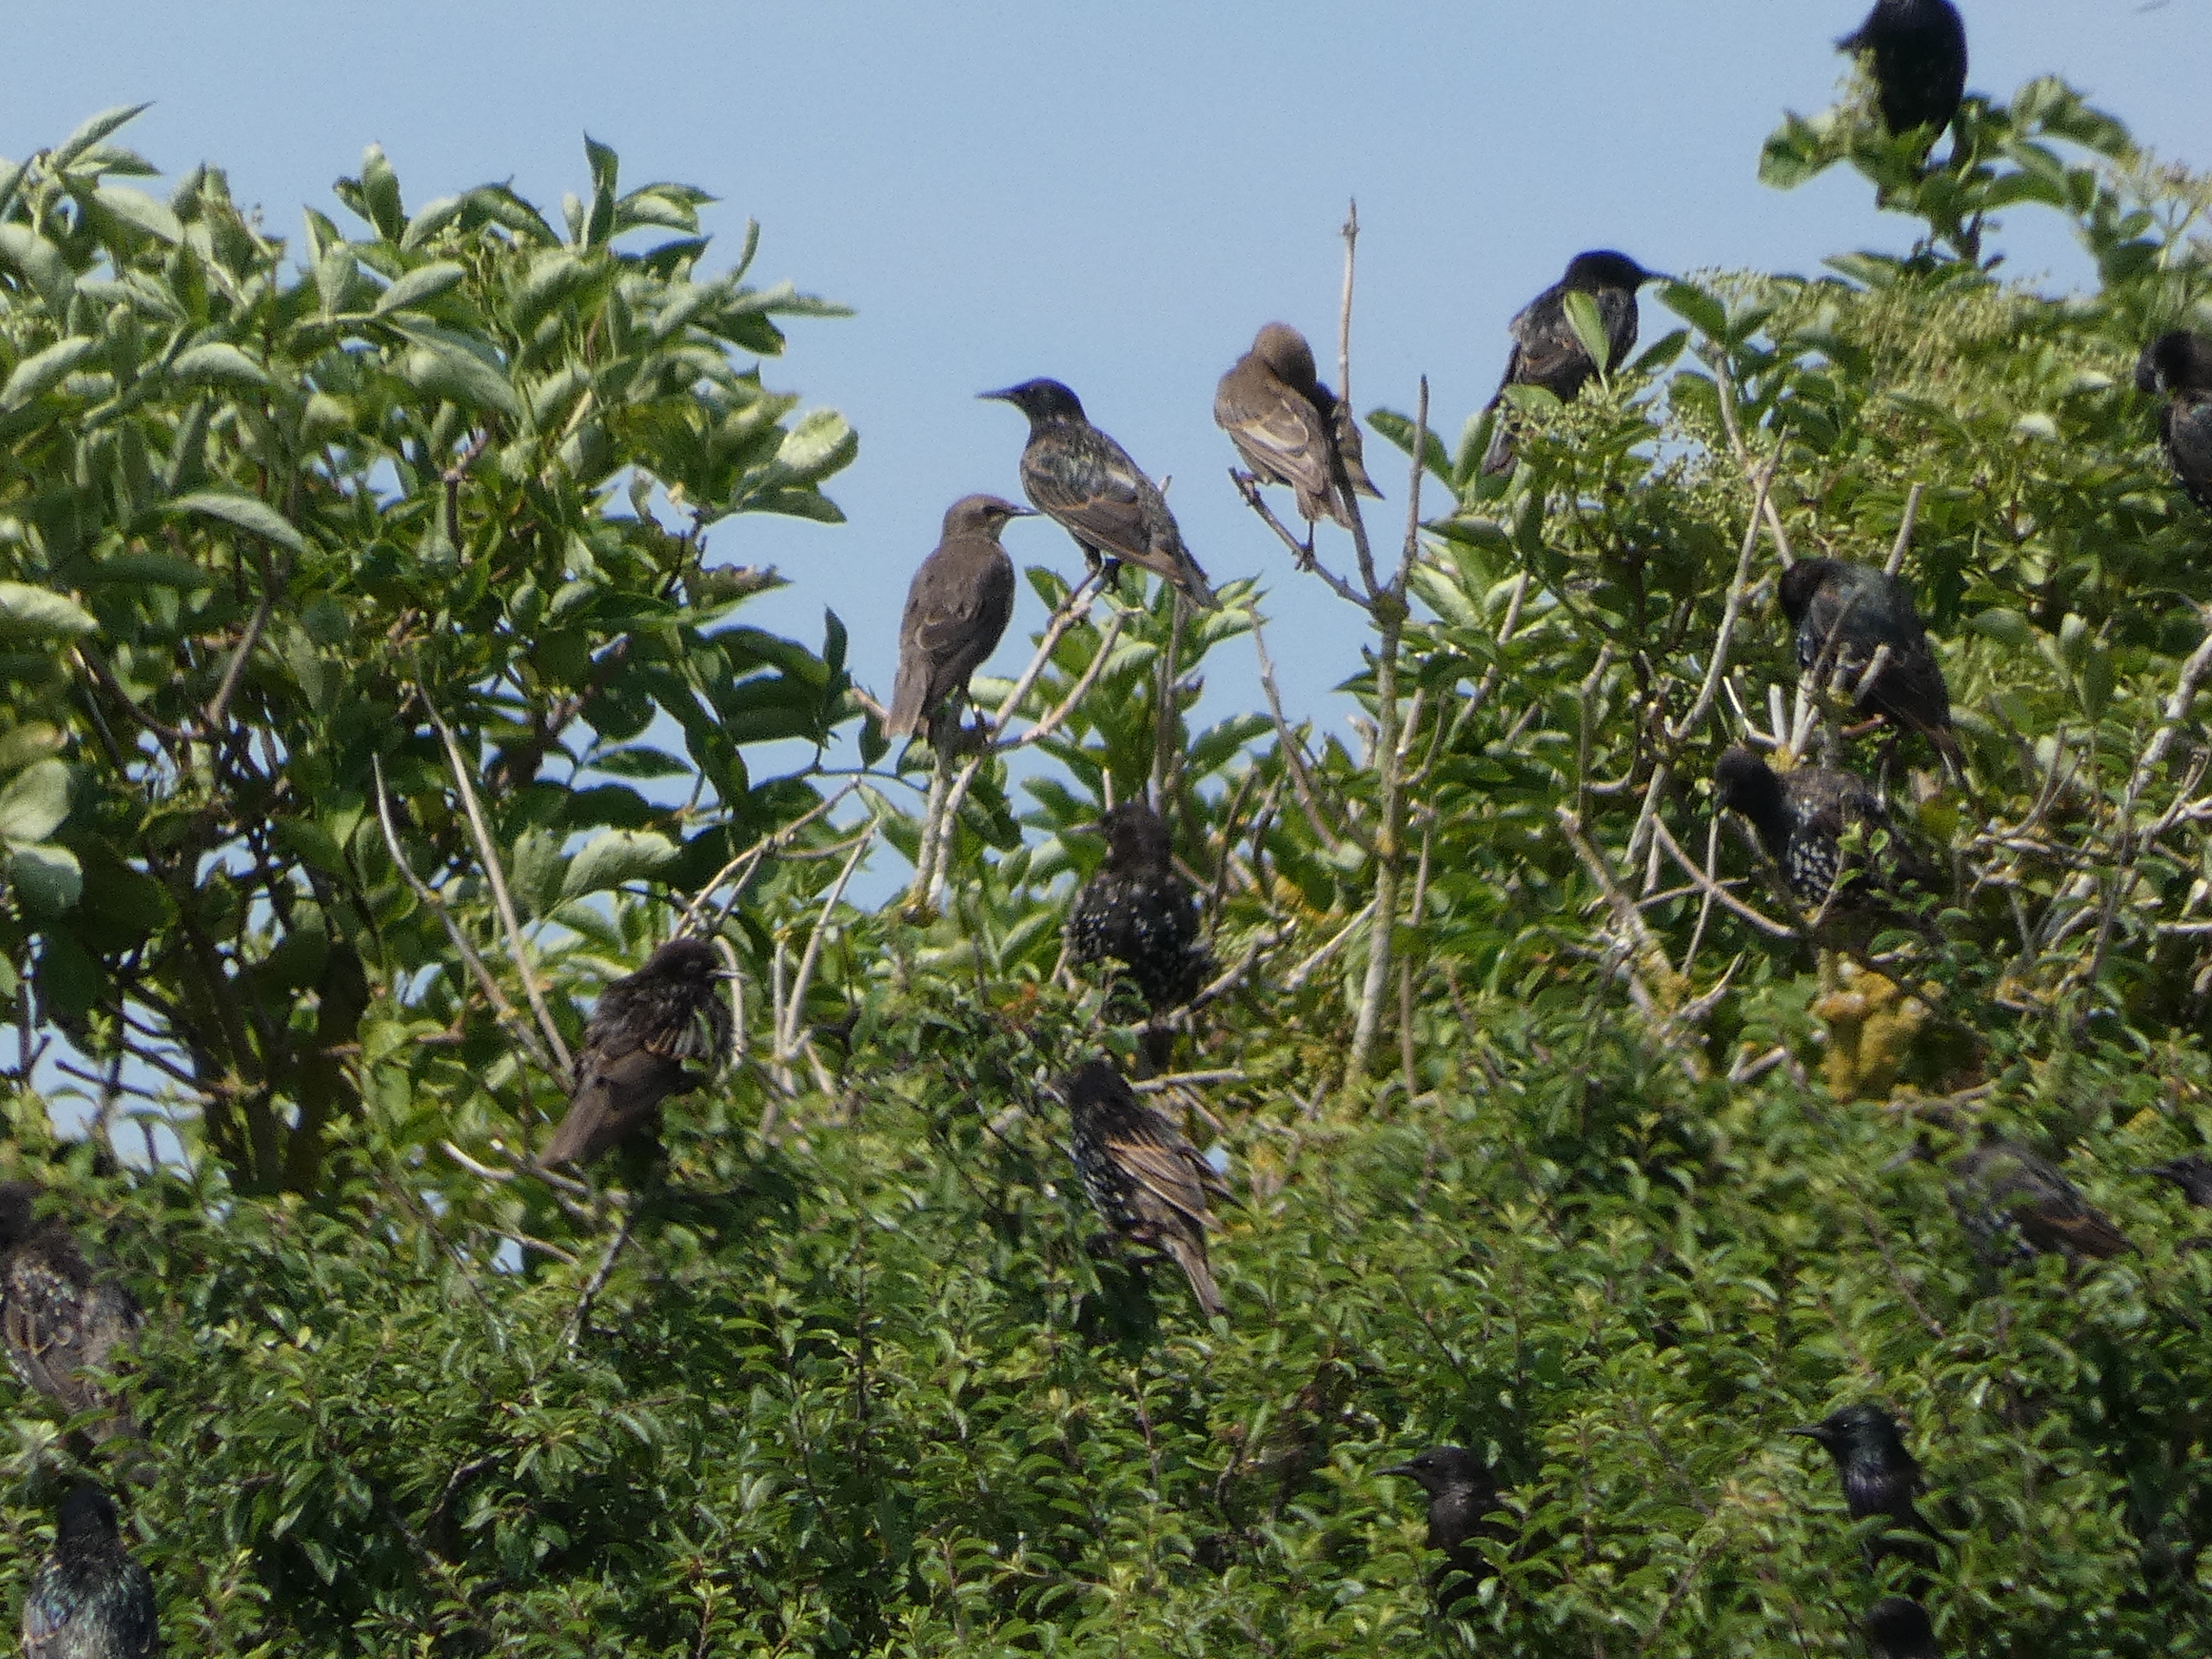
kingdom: Animalia
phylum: Chordata
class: Aves
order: Passeriformes
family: Sturnidae
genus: Sturnus
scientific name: Sturnus vulgaris
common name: Stær
